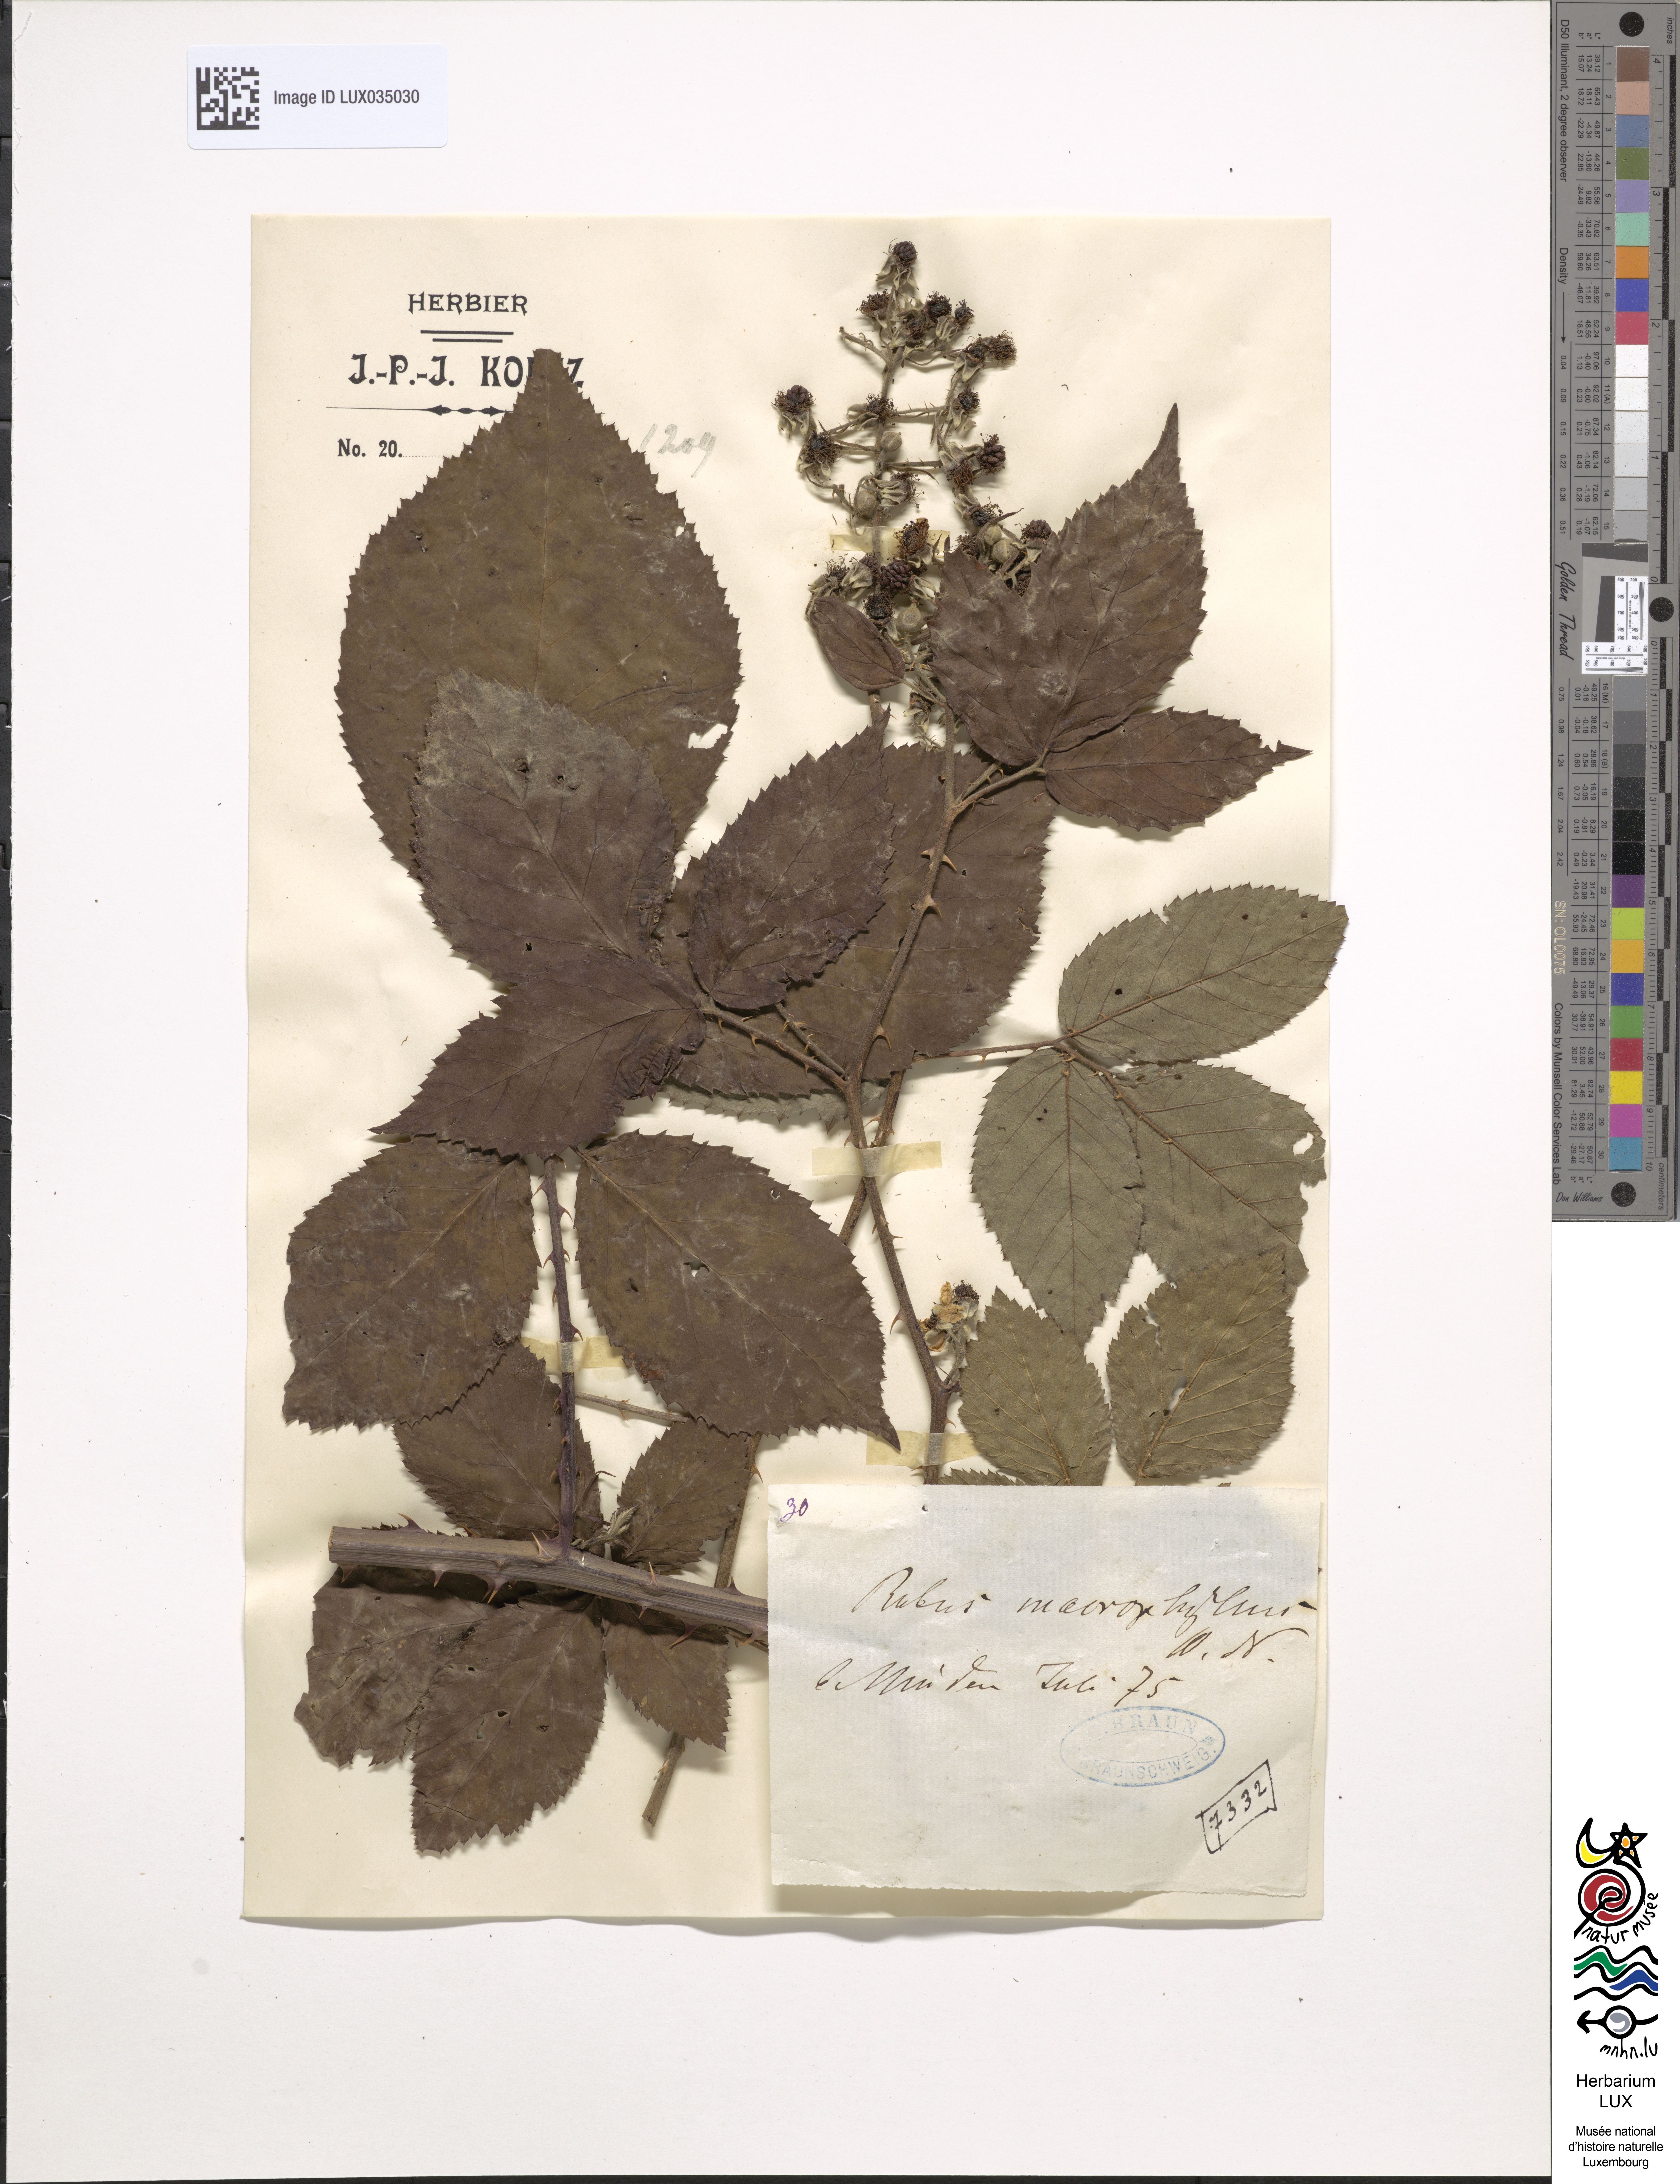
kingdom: Plantae
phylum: Tracheophyta
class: Magnoliopsida
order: Rosales
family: Rosaceae
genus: Rubus
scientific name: Rubus macrophyllus
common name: Largeleaf blackberry
